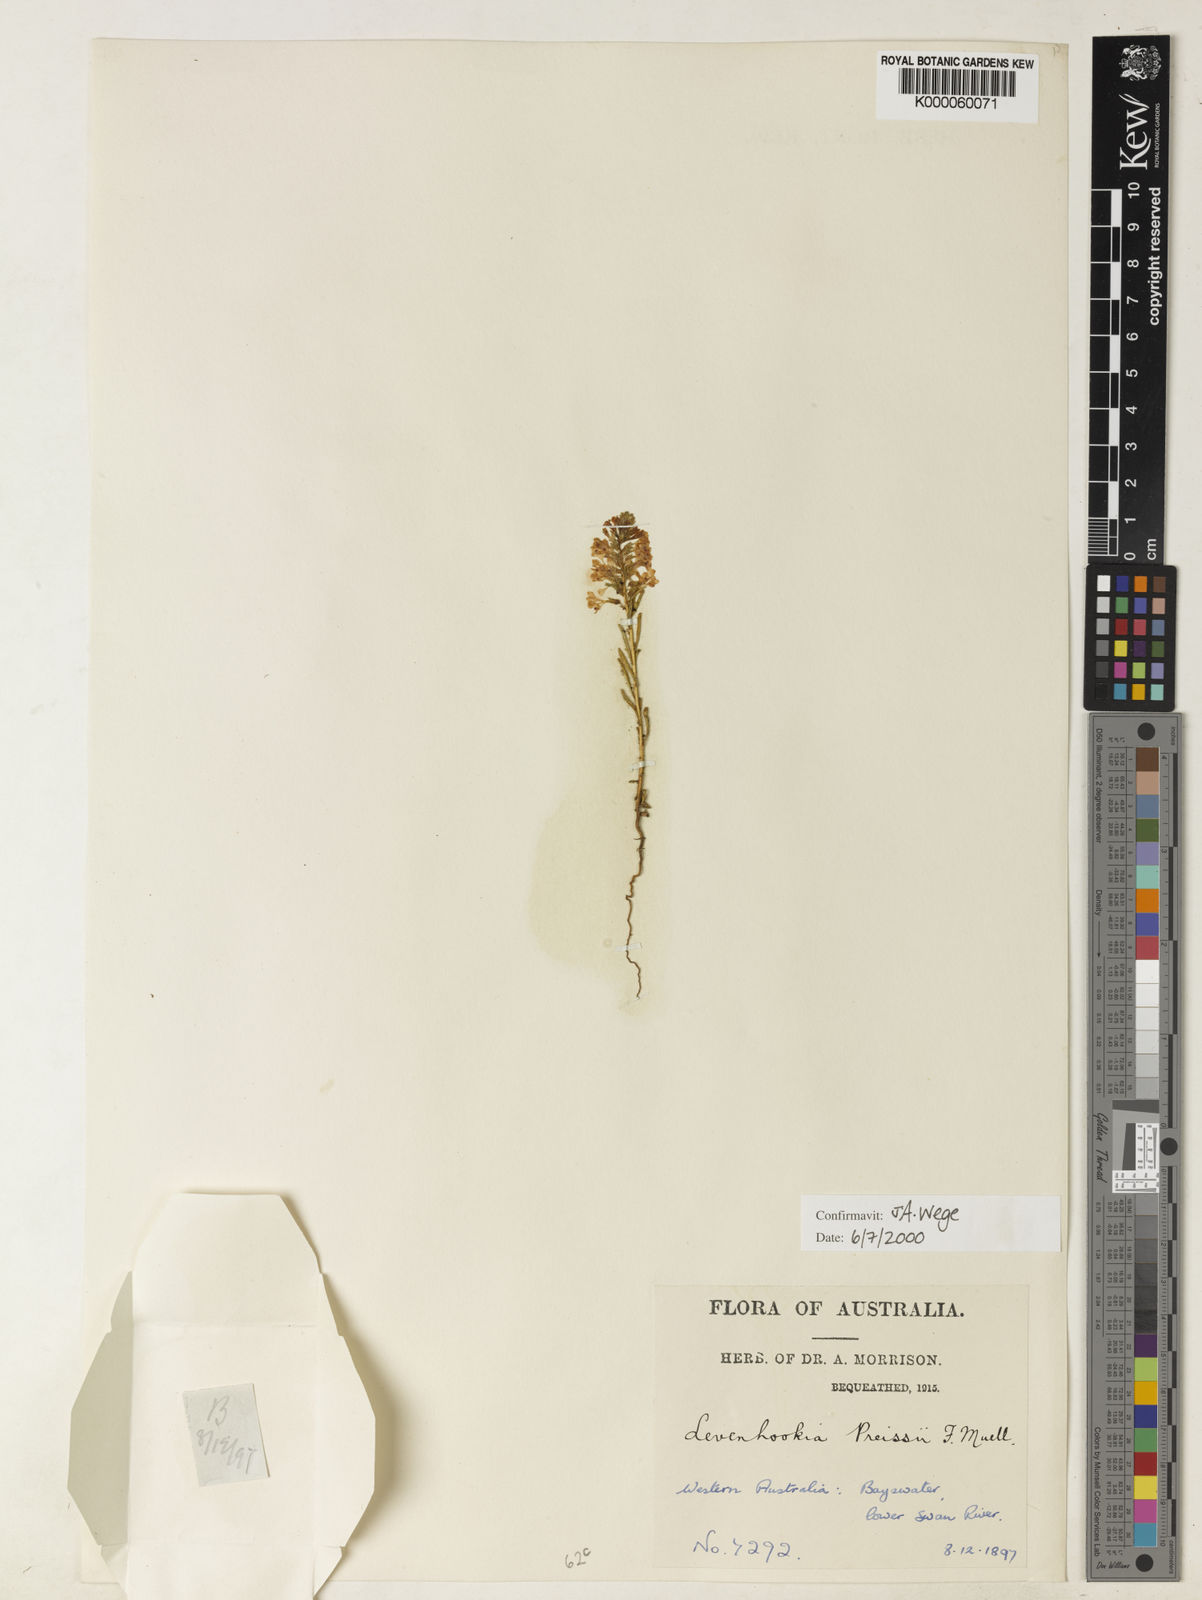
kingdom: Plantae
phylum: Tracheophyta
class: Magnoliopsida
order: Asterales
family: Stylidiaceae
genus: Levenhookia
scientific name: Levenhookia preissii
